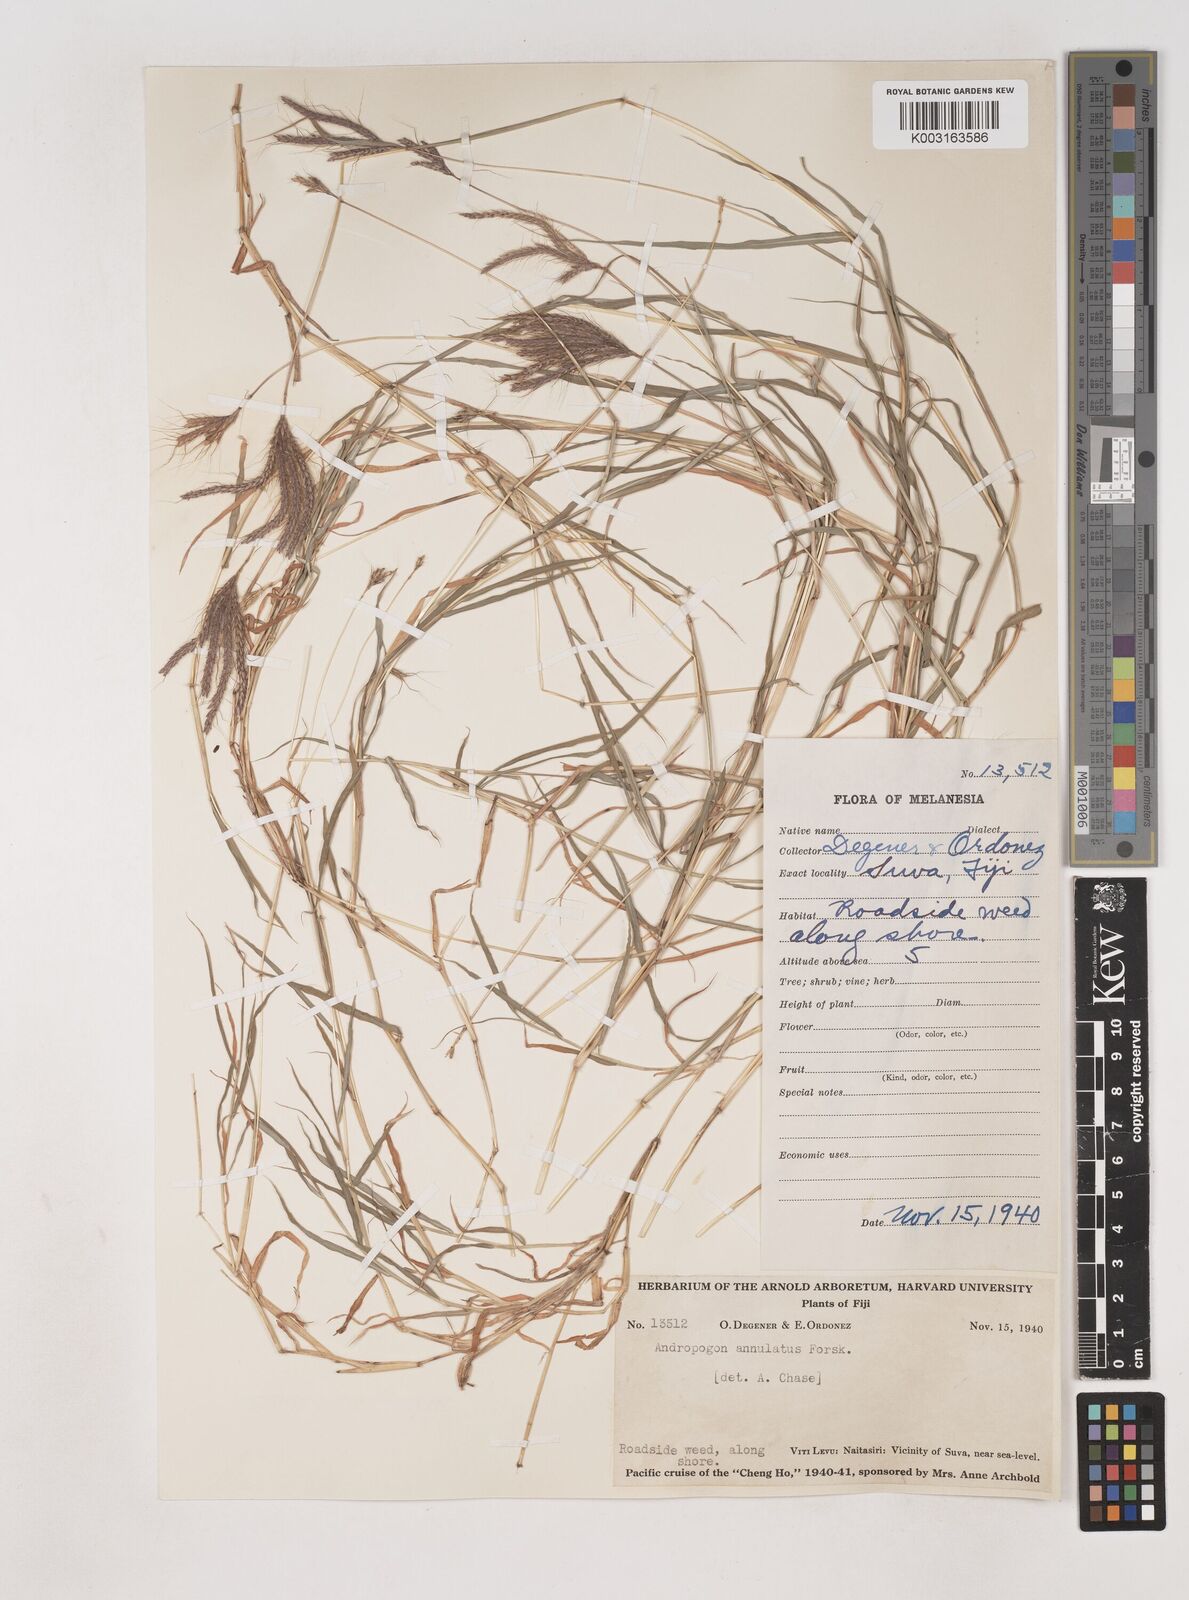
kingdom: Plantae
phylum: Tracheophyta
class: Liliopsida
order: Poales
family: Poaceae
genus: Dichanthium
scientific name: Dichanthium annulatum
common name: Kleberg's bluestem
